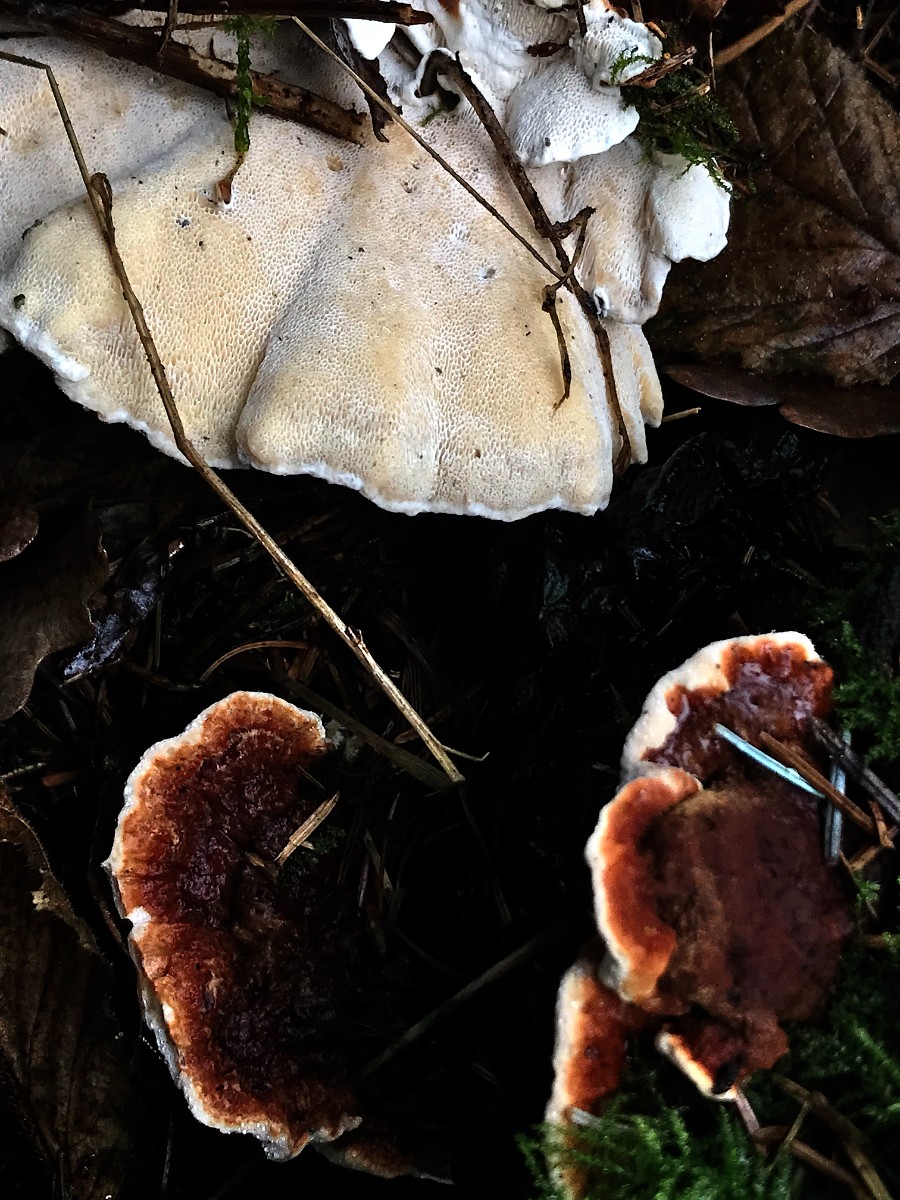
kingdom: Fungi
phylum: Basidiomycota
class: Agaricomycetes
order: Russulales
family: Bondarzewiaceae
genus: Heterobasidion
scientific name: Heterobasidion annosum
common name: almindelig rodfordærver
